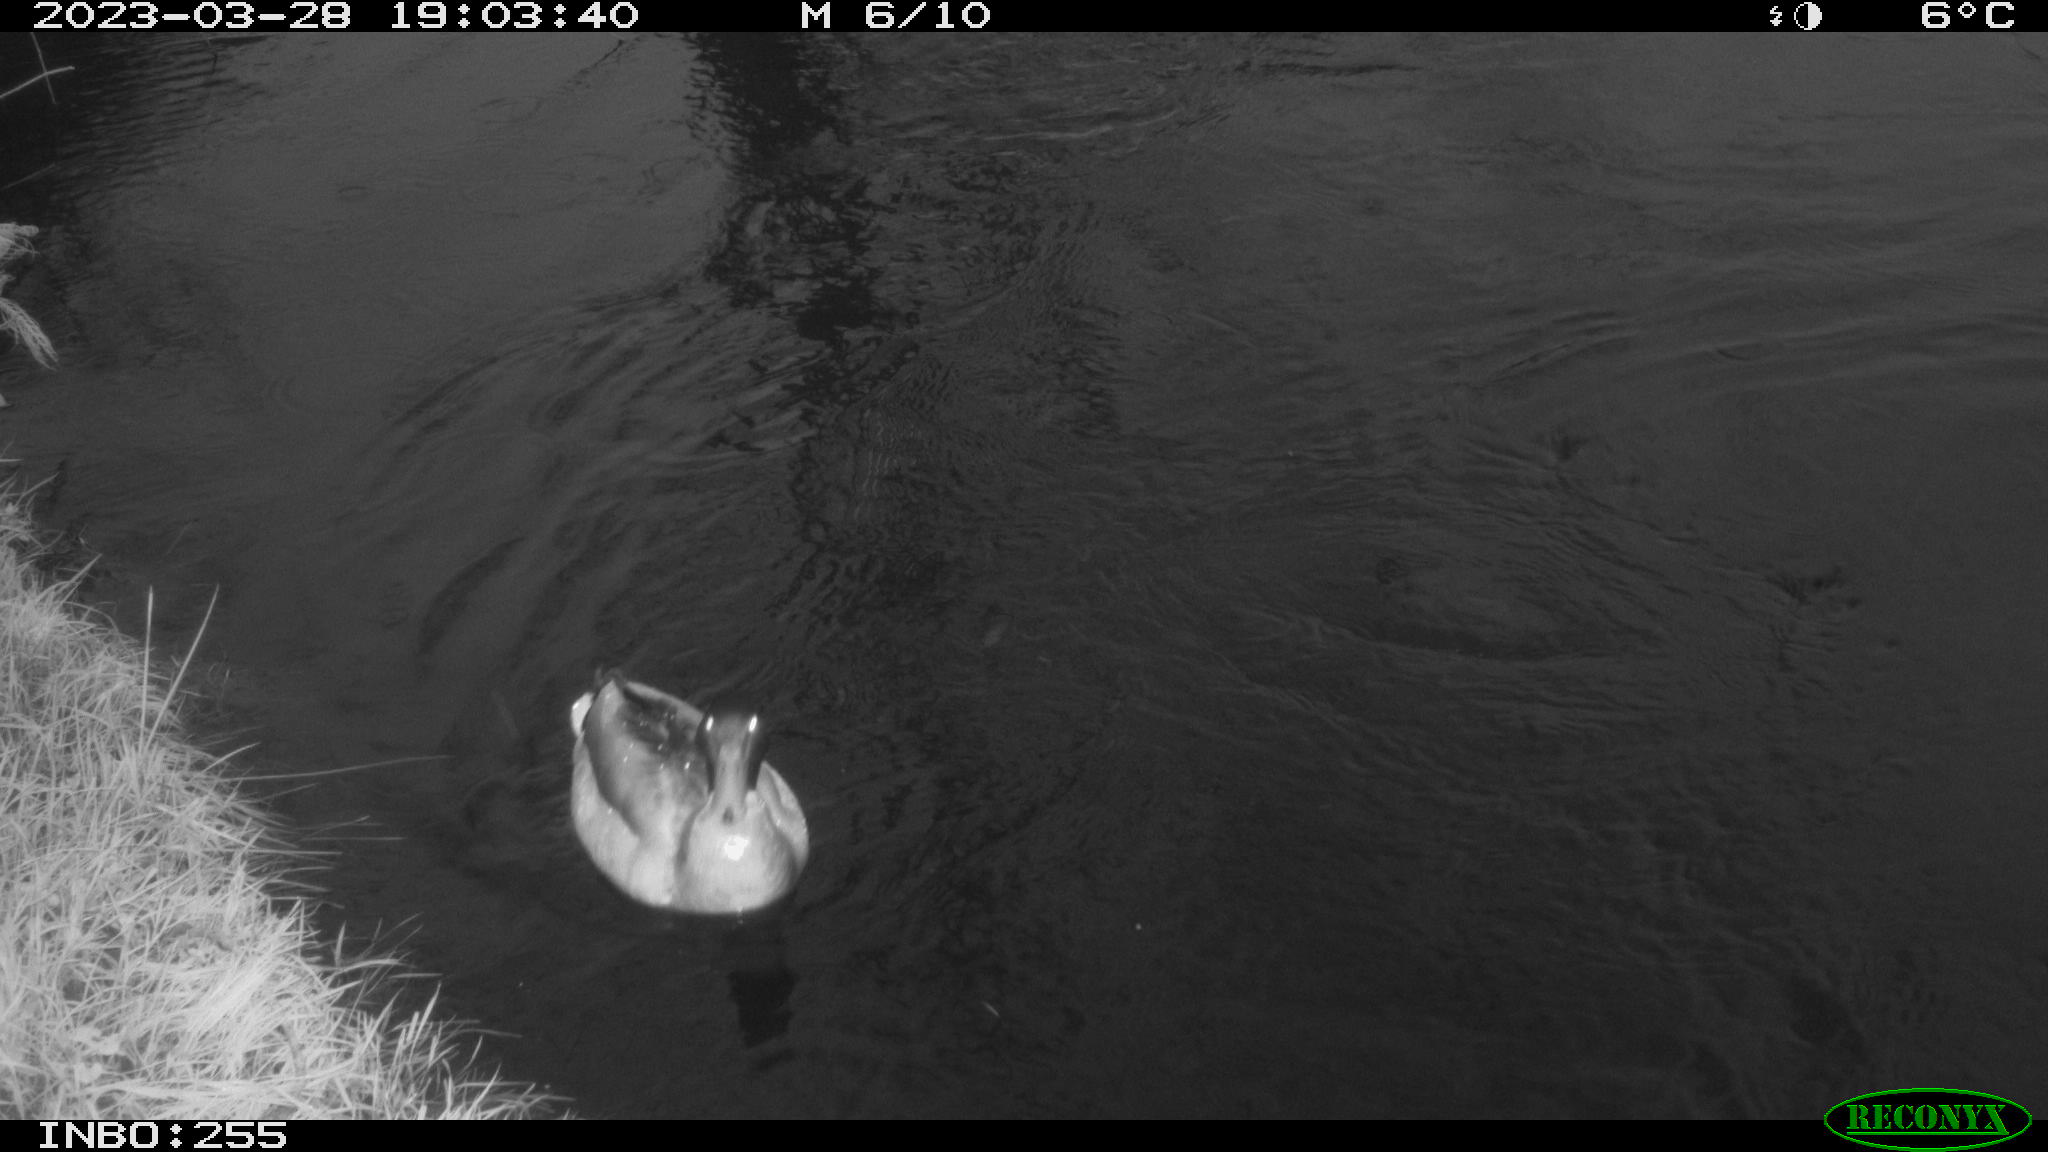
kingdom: Animalia
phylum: Chordata
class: Aves
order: Anseriformes
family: Anatidae
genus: Anas
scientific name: Anas
